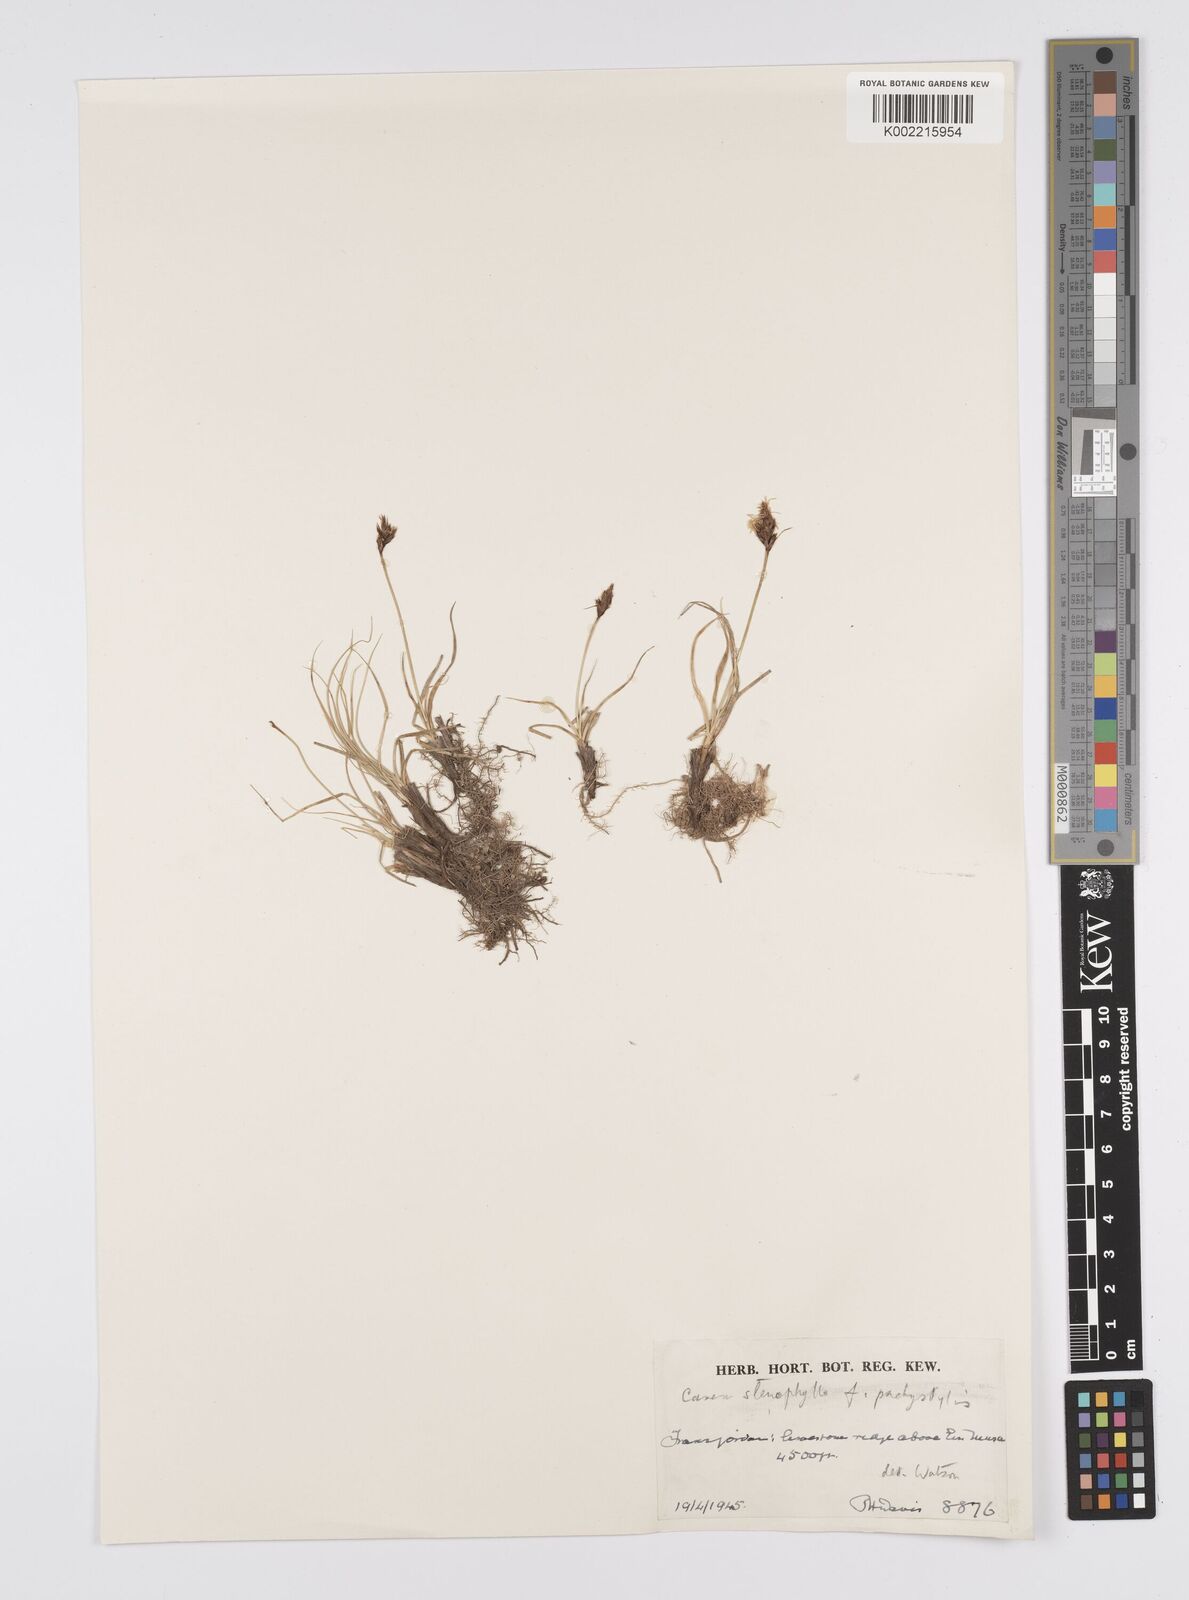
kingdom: Plantae
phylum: Tracheophyta
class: Liliopsida
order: Poales
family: Cyperaceae
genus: Carex
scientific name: Carex pachystylis
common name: Thick-stem sedge
